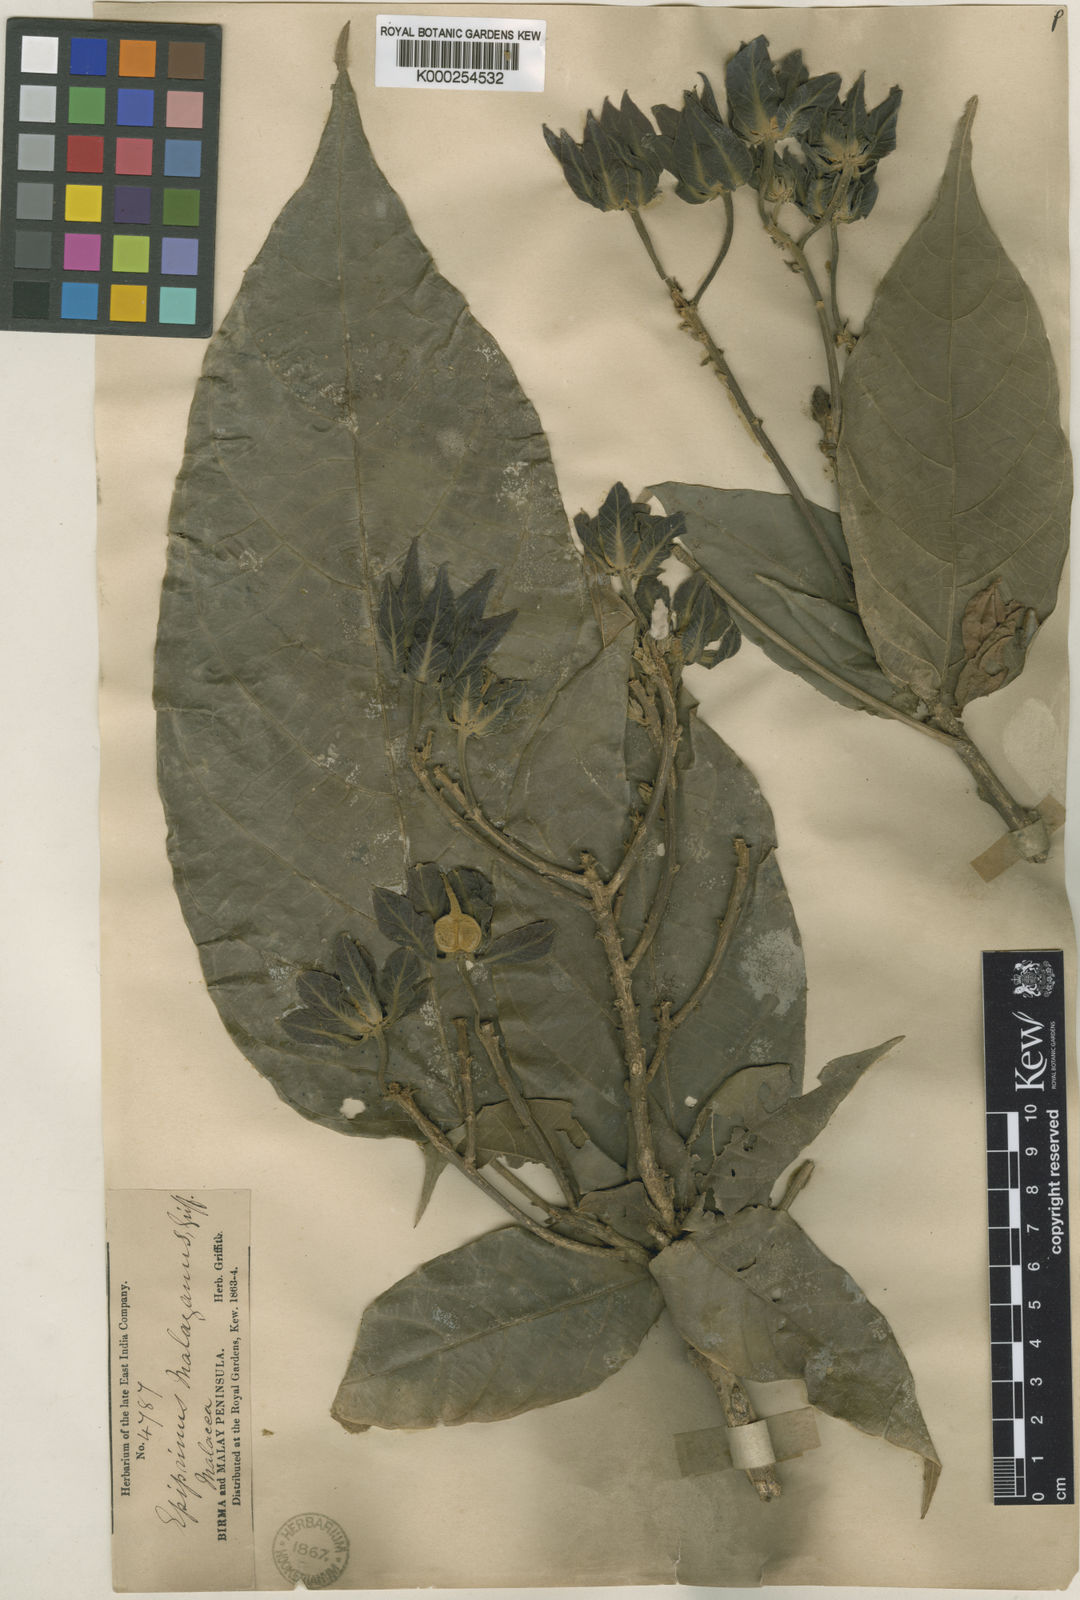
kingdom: Plantae
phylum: Tracheophyta
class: Magnoliopsida
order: Malpighiales
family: Euphorbiaceae
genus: Epiprinus
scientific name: Epiprinus malayanus
